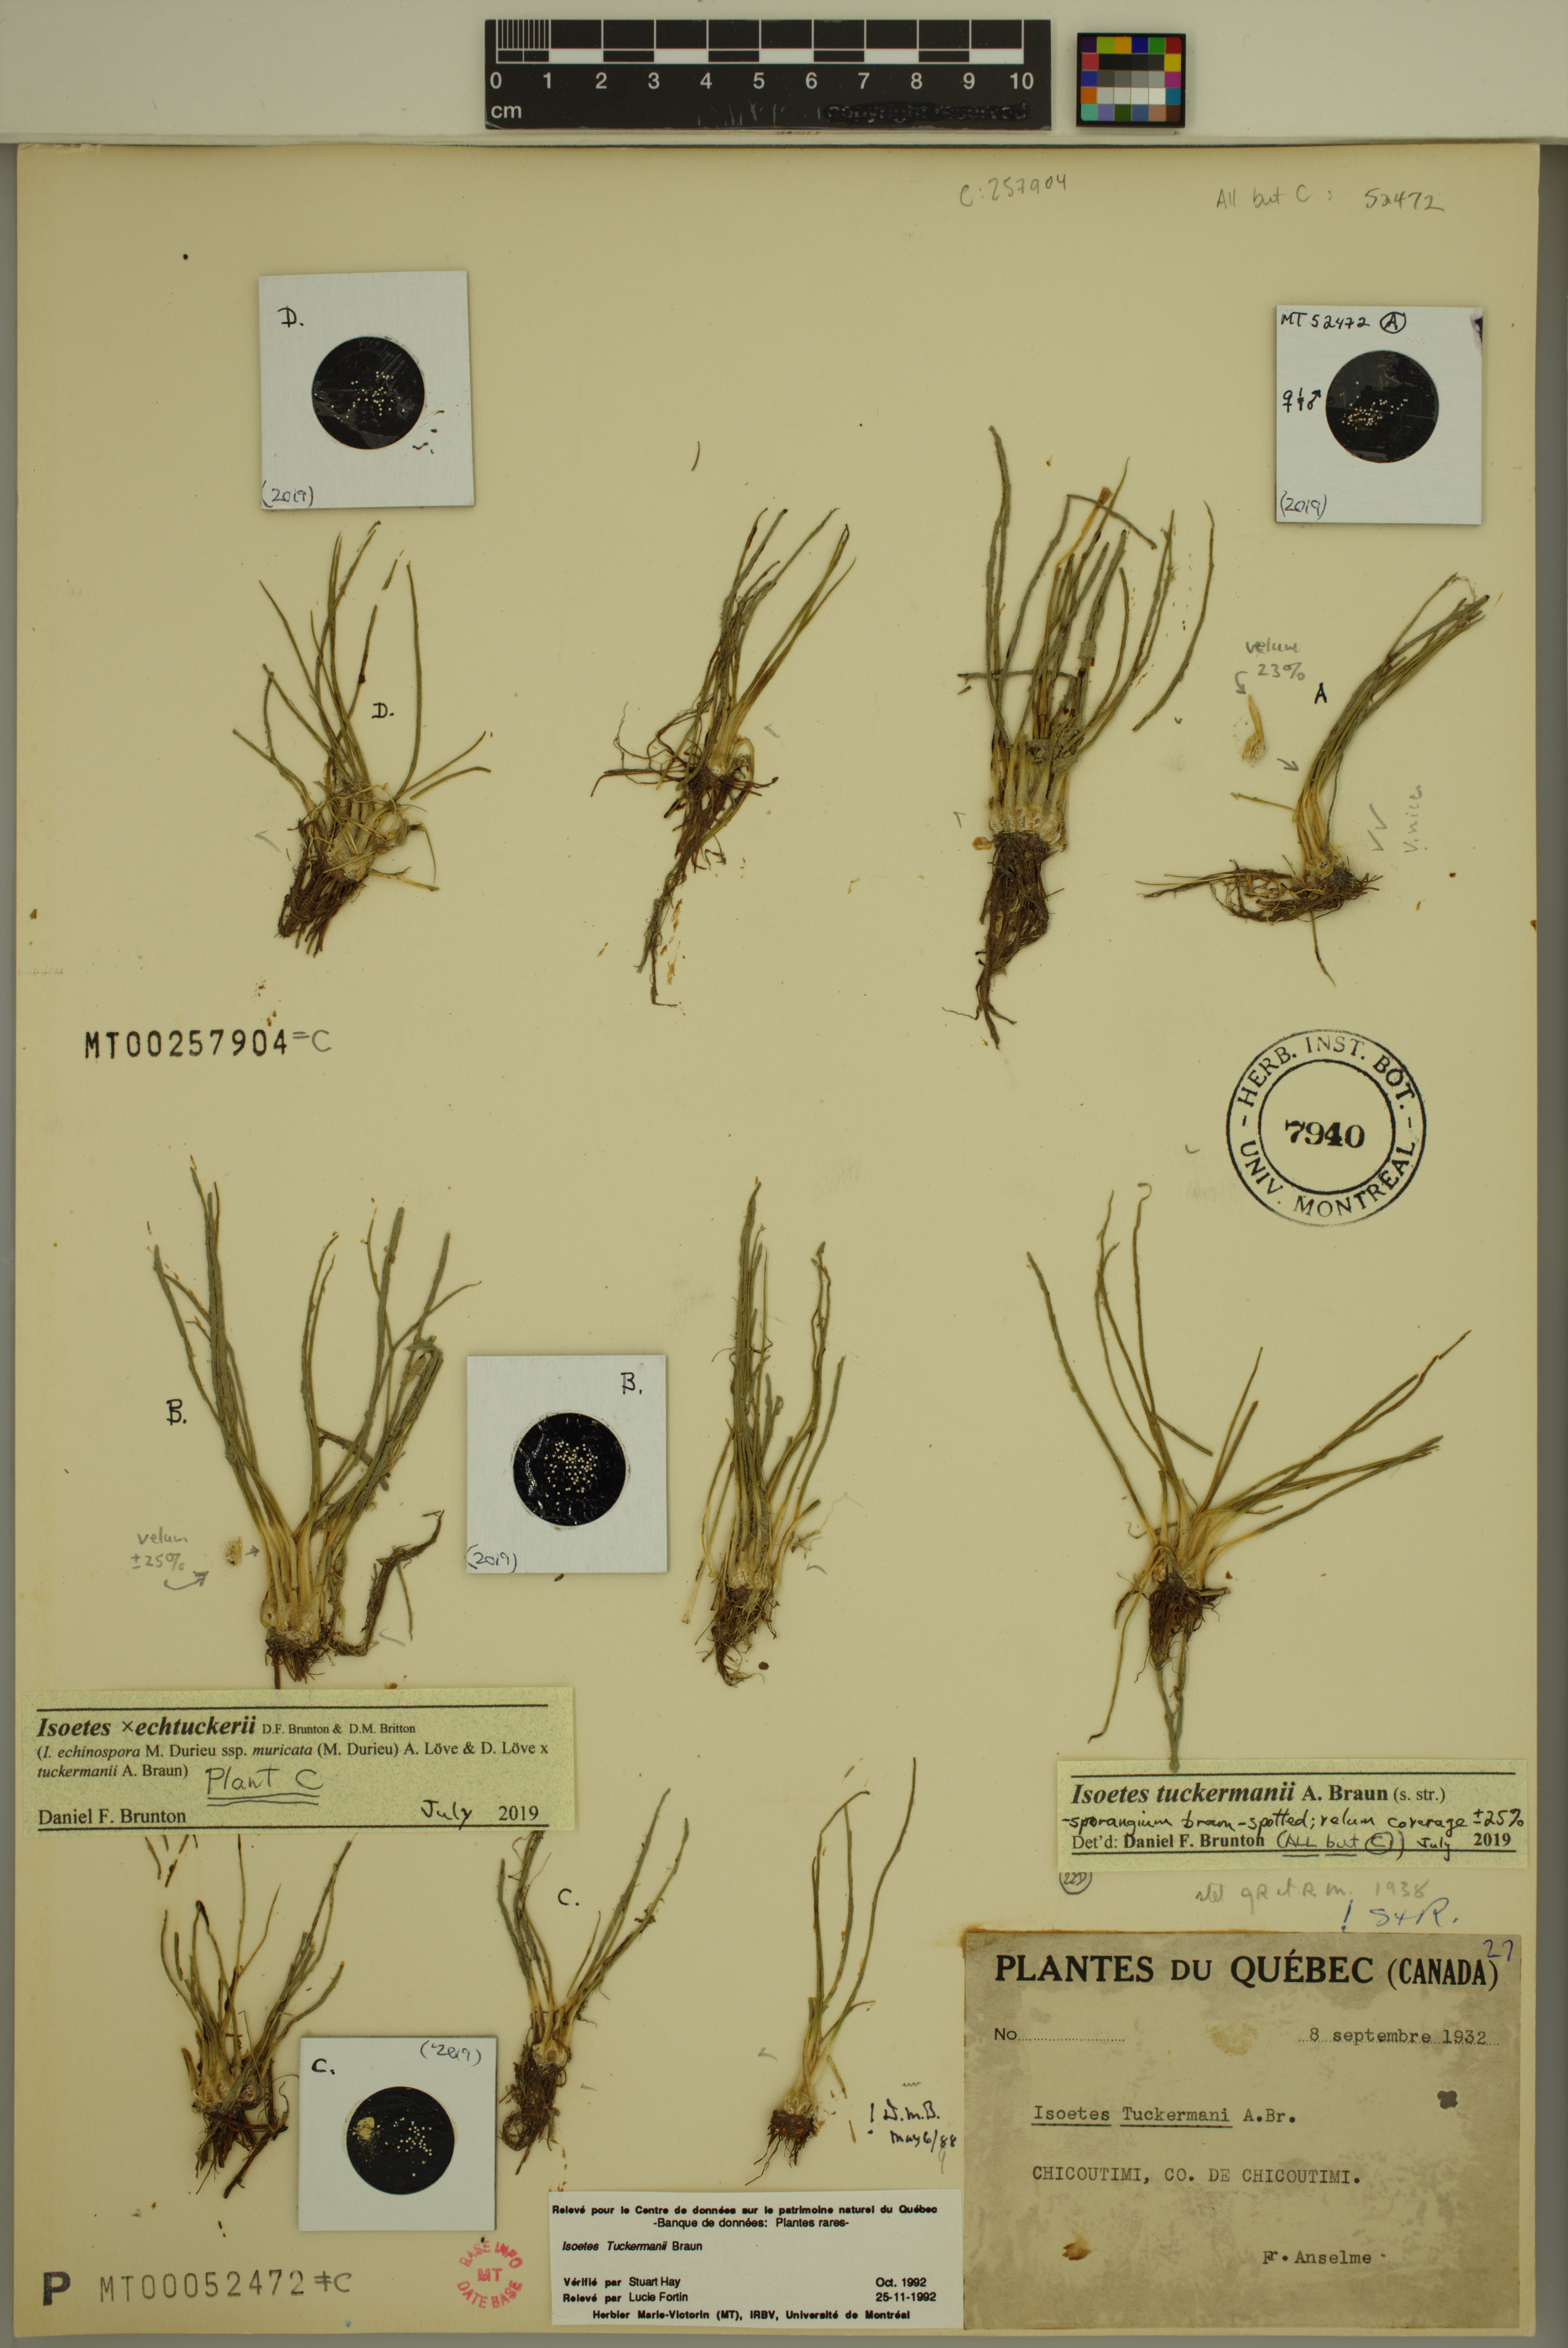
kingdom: Plantae
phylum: Tracheophyta
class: Lycopodiopsida
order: Isoetales
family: Isoetaceae
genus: Isoetes
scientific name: Isoetes echtuckeri
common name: Hybrid quillwort
